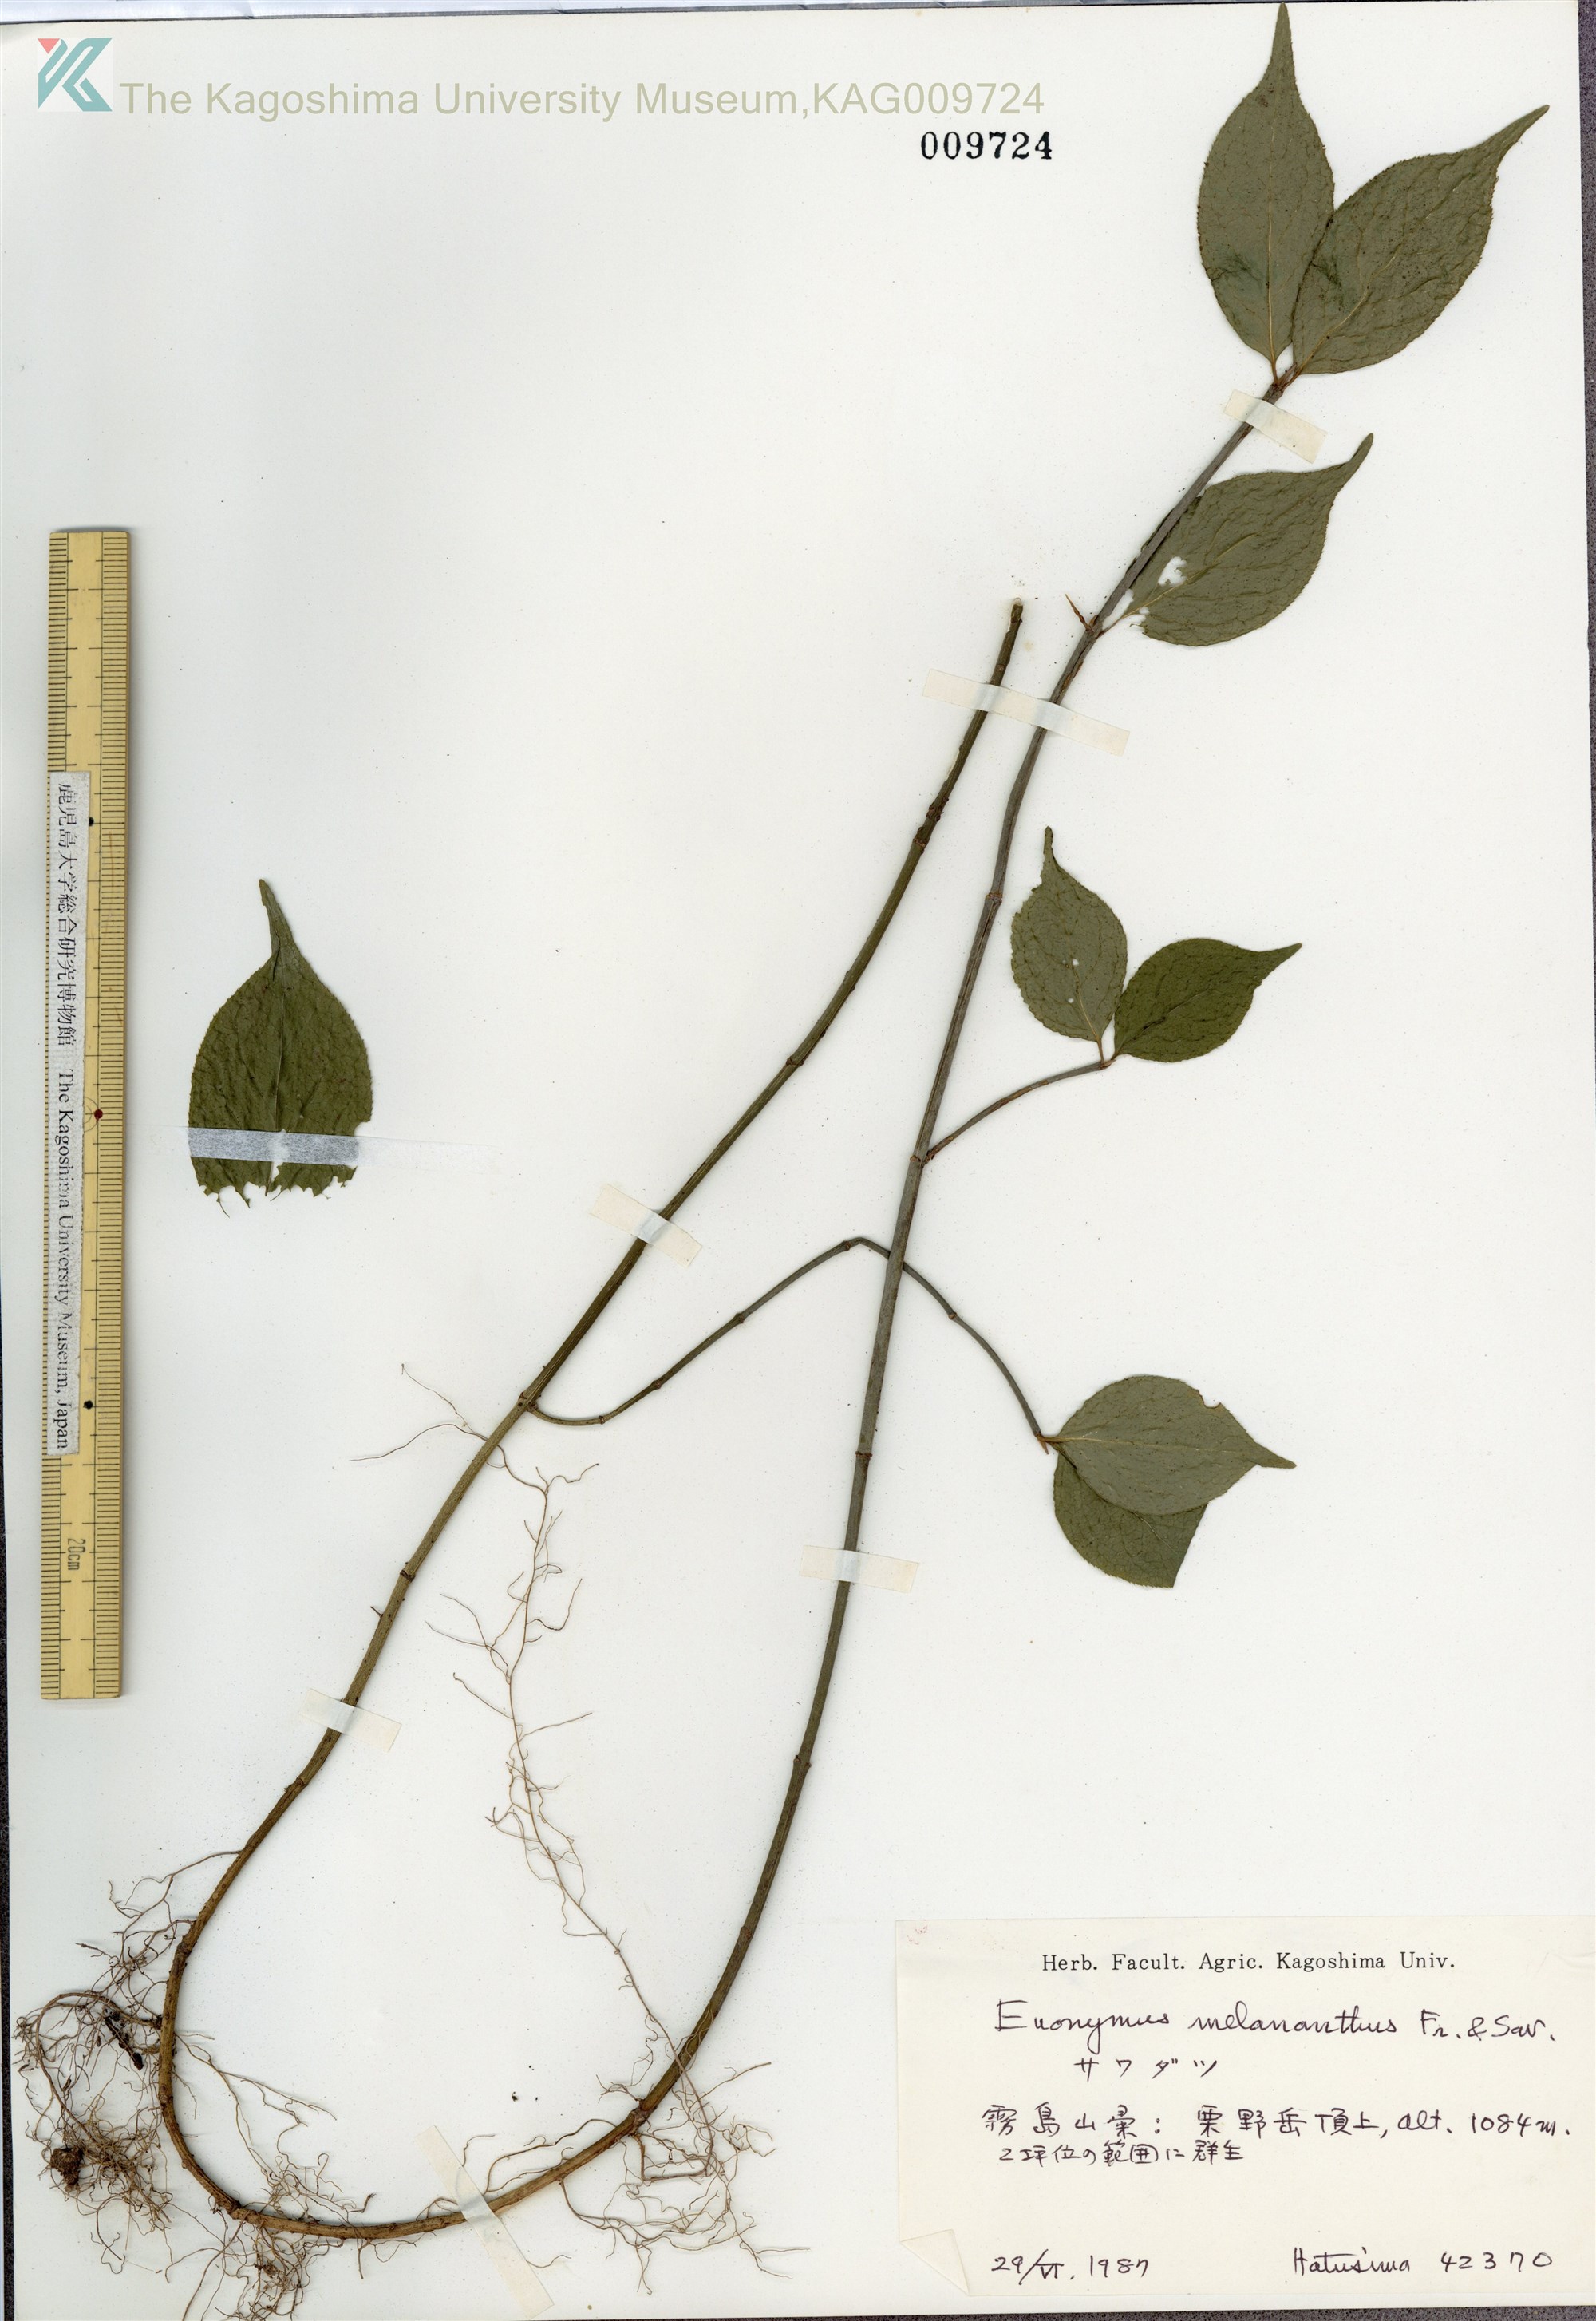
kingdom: Plantae
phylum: Tracheophyta
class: Magnoliopsida
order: Celastrales
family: Celastraceae
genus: Euonymus
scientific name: Euonymus melananthus
